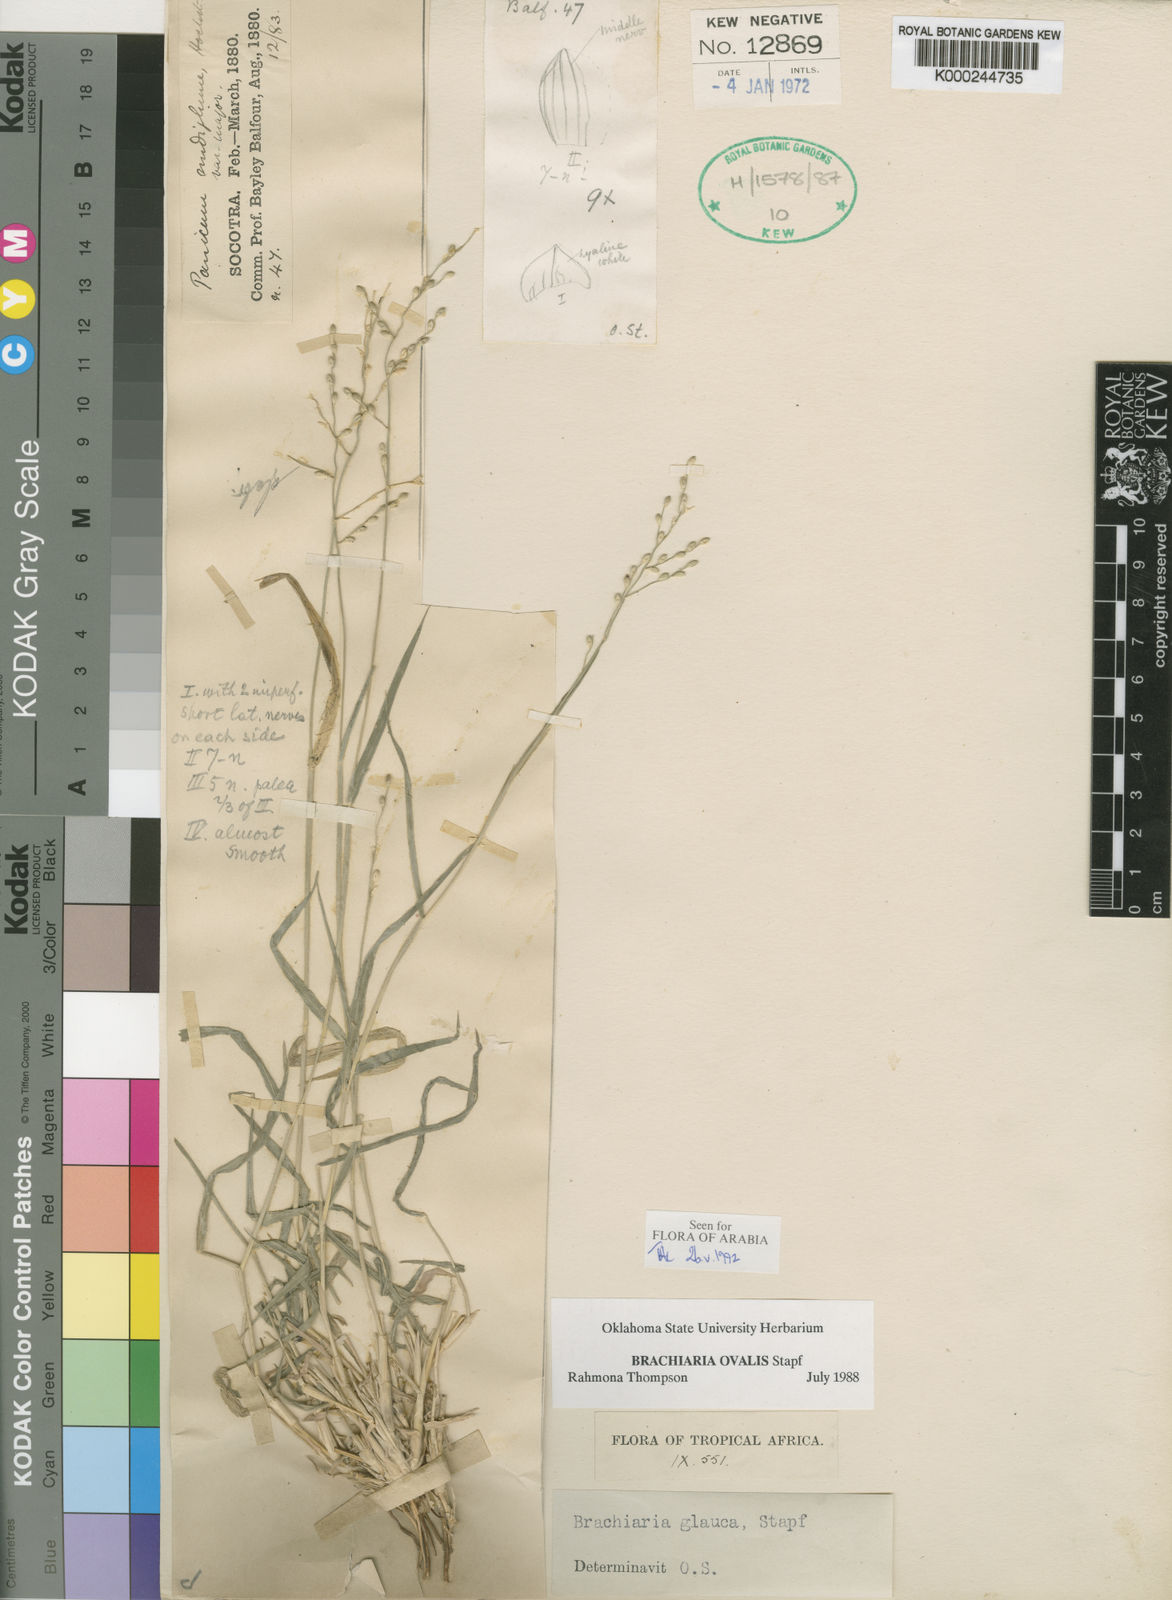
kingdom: Plantae
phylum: Tracheophyta
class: Liliopsida
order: Poales
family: Poaceae
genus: Urochloa
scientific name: Urochloa ovalis
